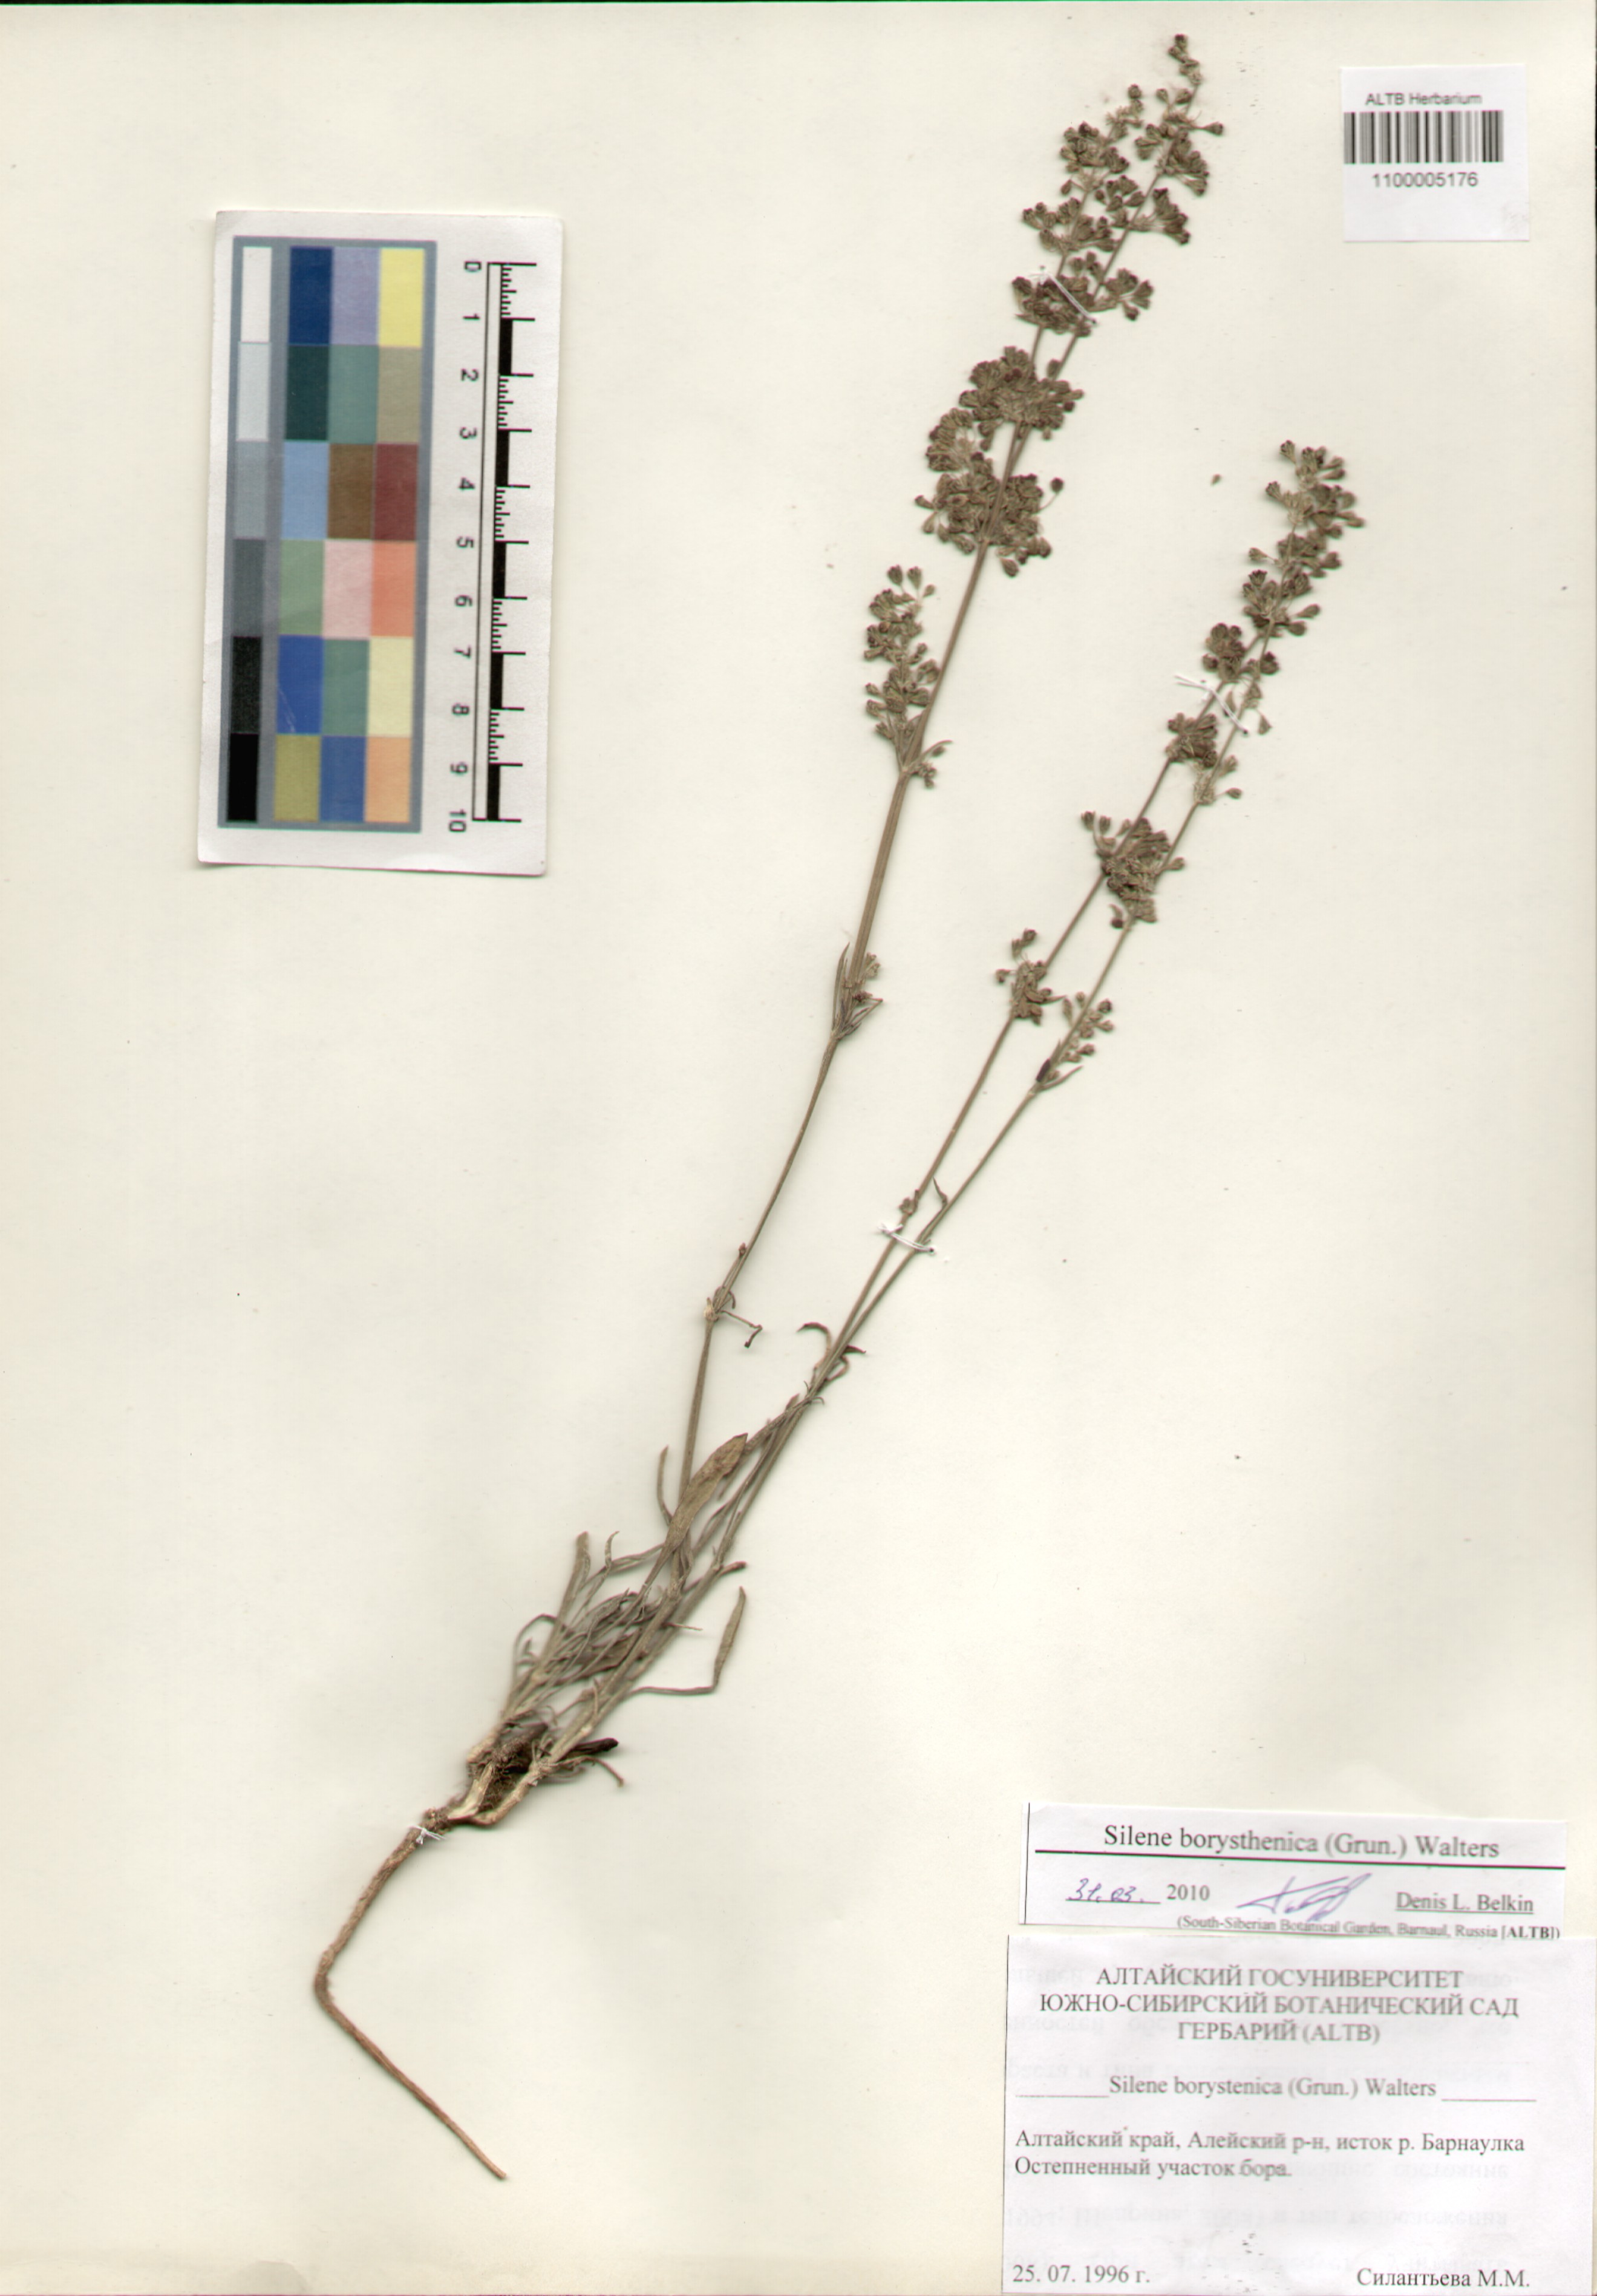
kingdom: Plantae
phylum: Tracheophyta
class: Magnoliopsida
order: Caryophyllales
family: Caryophyllaceae
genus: Silene
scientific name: Silene borysthenica
